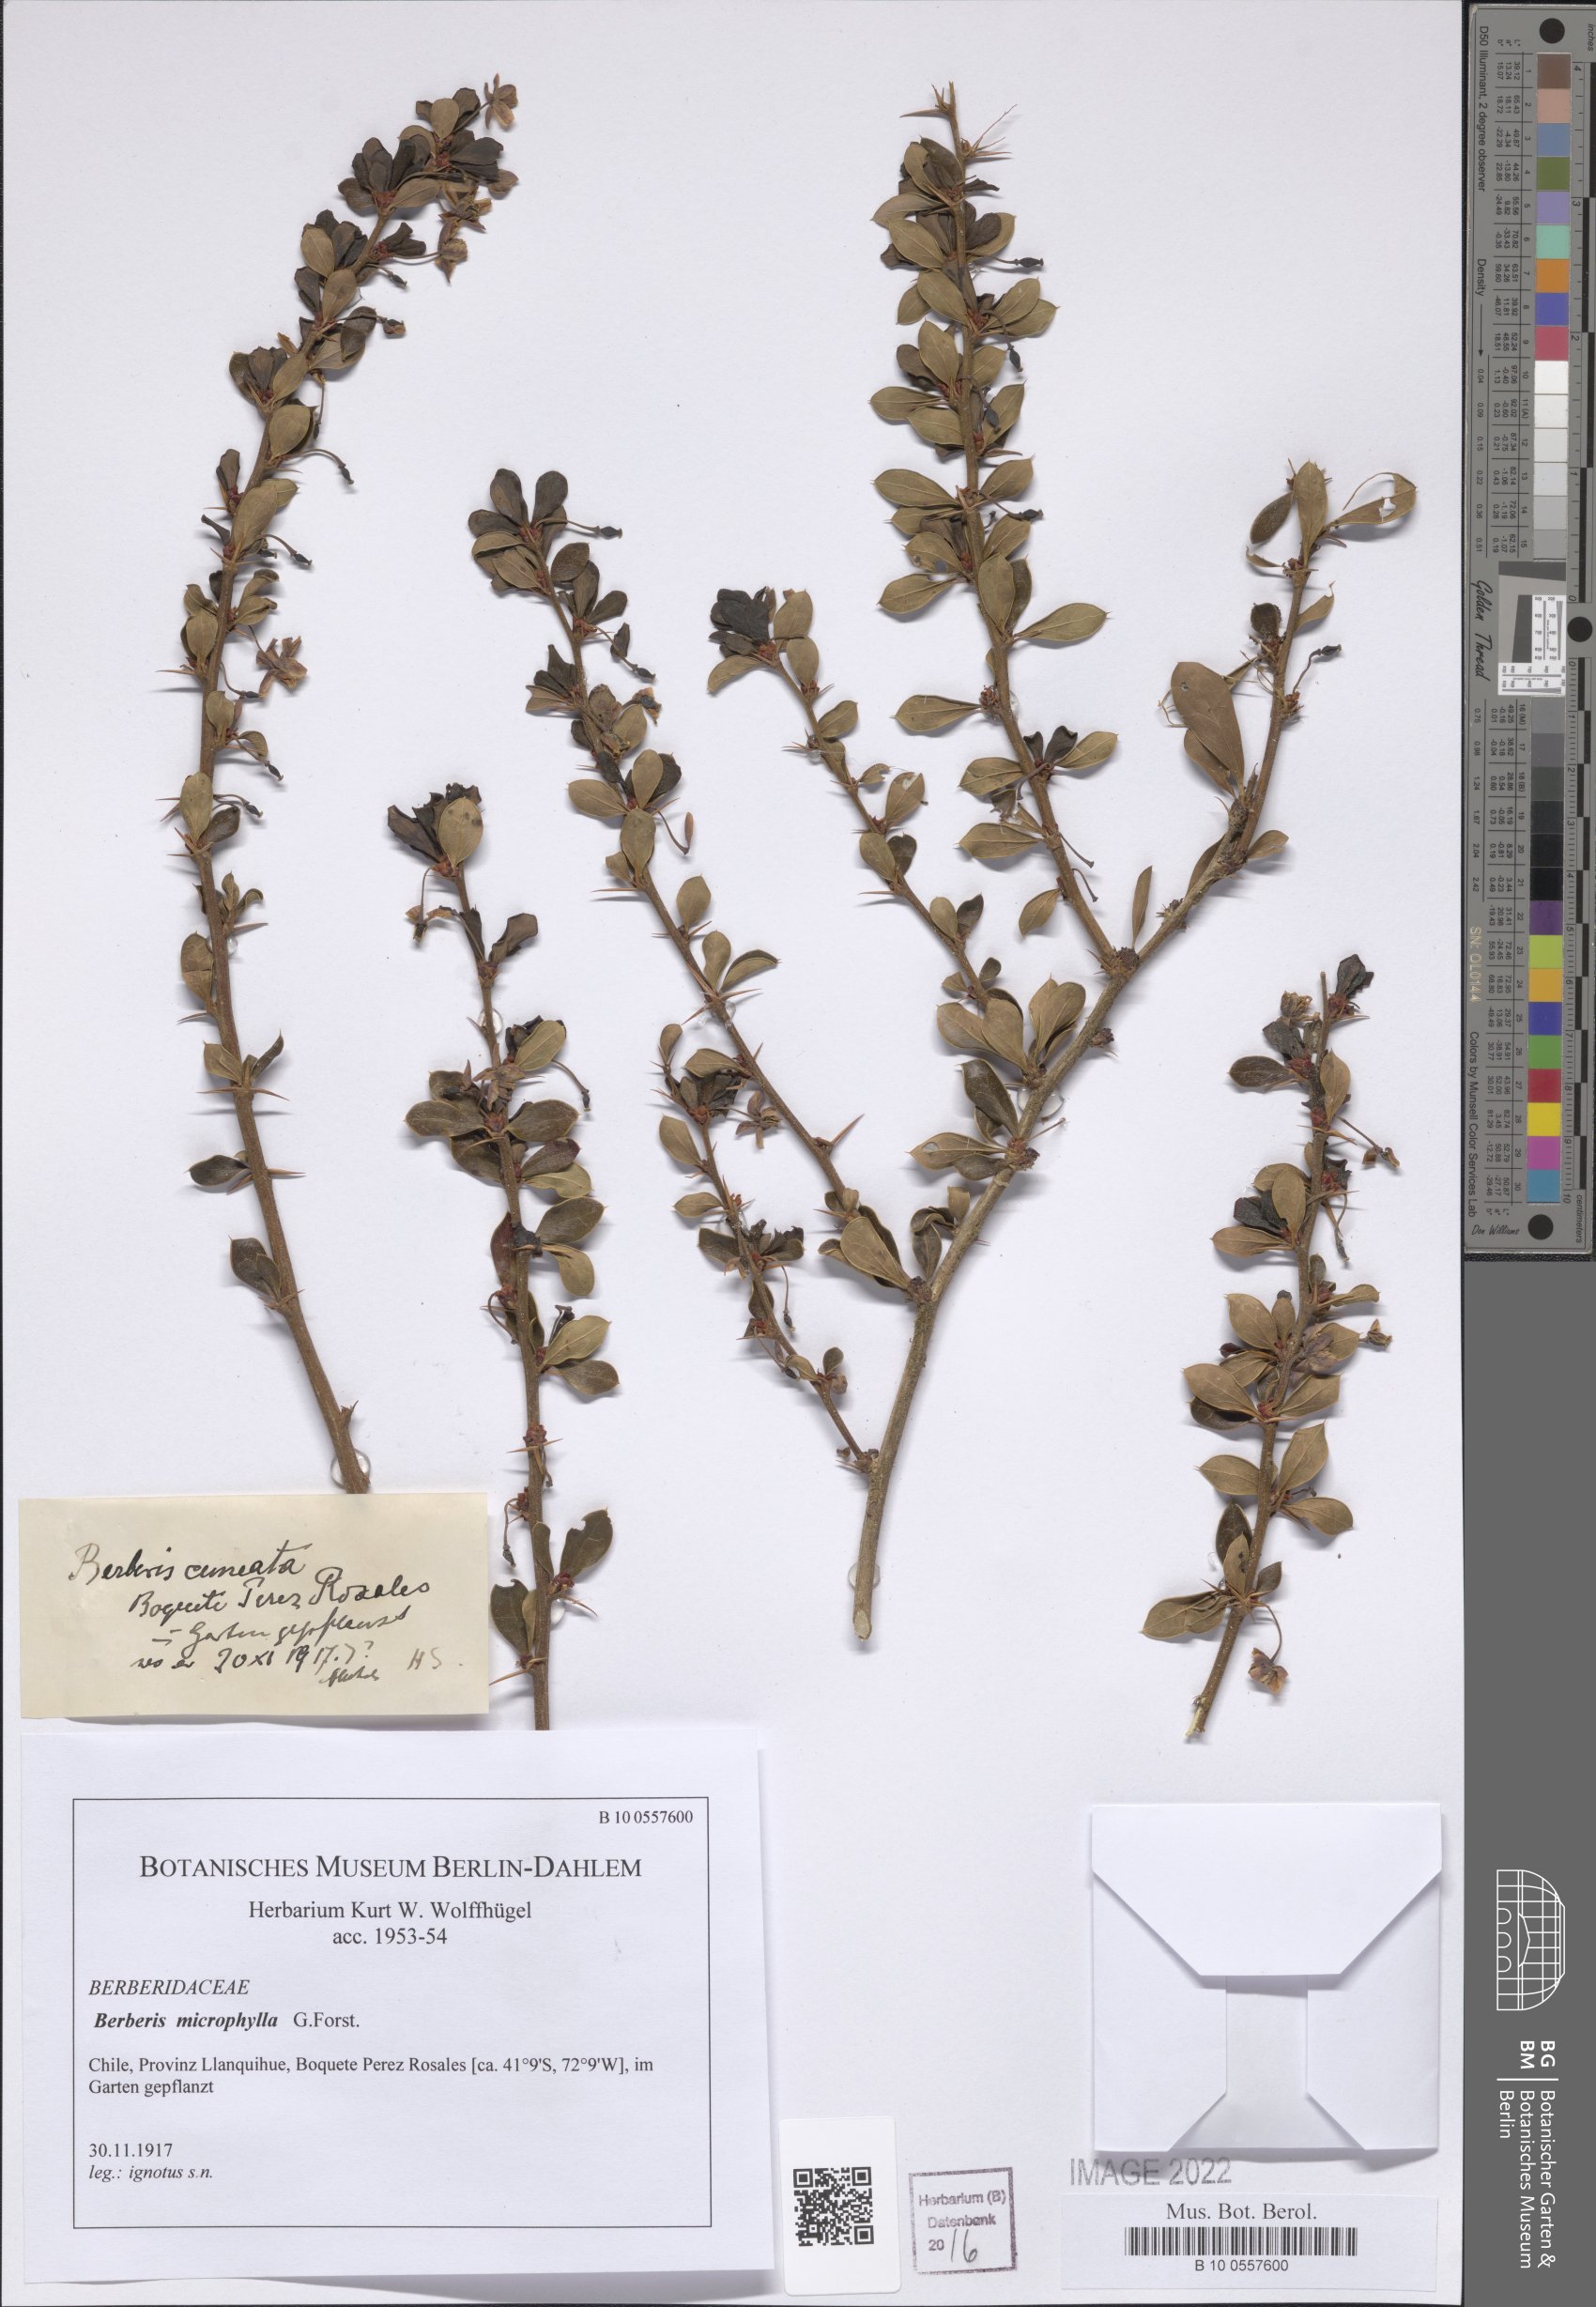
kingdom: Plantae
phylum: Tracheophyta
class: Magnoliopsida
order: Ranunculales
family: Berberidaceae
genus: Berberis
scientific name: Berberis microphylla
